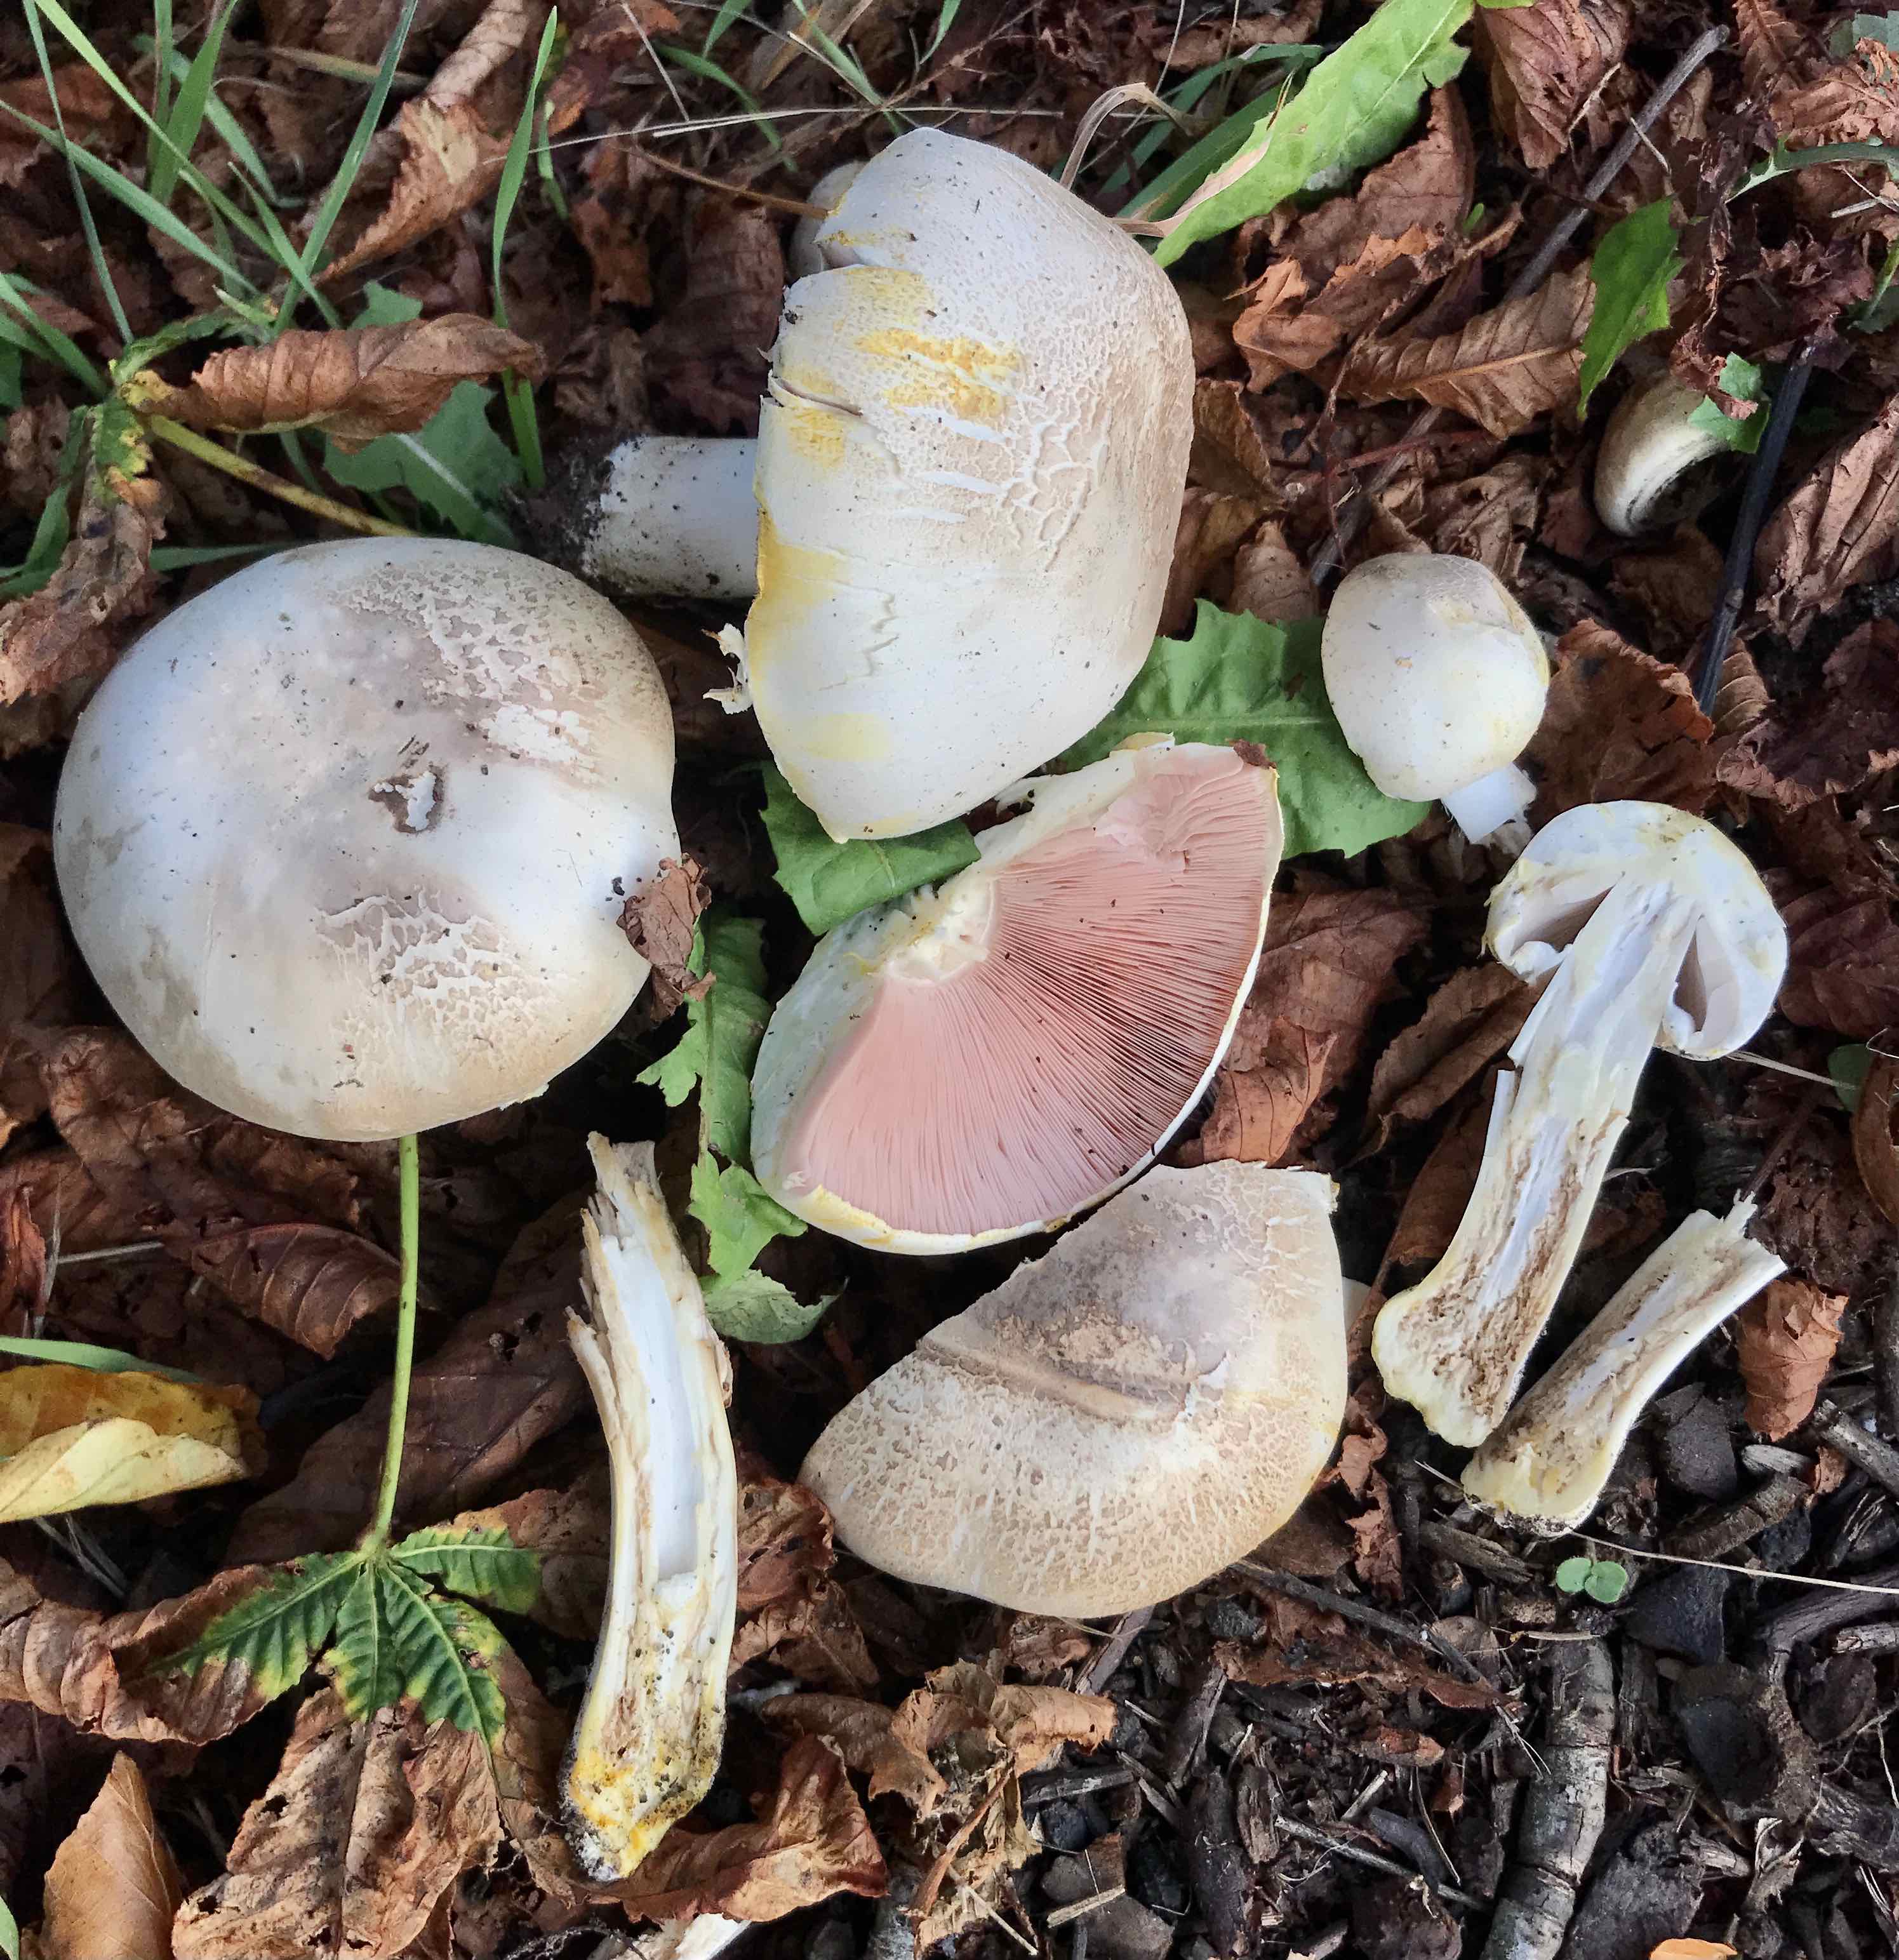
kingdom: Fungi
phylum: Basidiomycota
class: Agaricomycetes
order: Agaricales
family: Agaricaceae
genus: Agaricus
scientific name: Agaricus xanthodermus
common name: karbol-champignon
